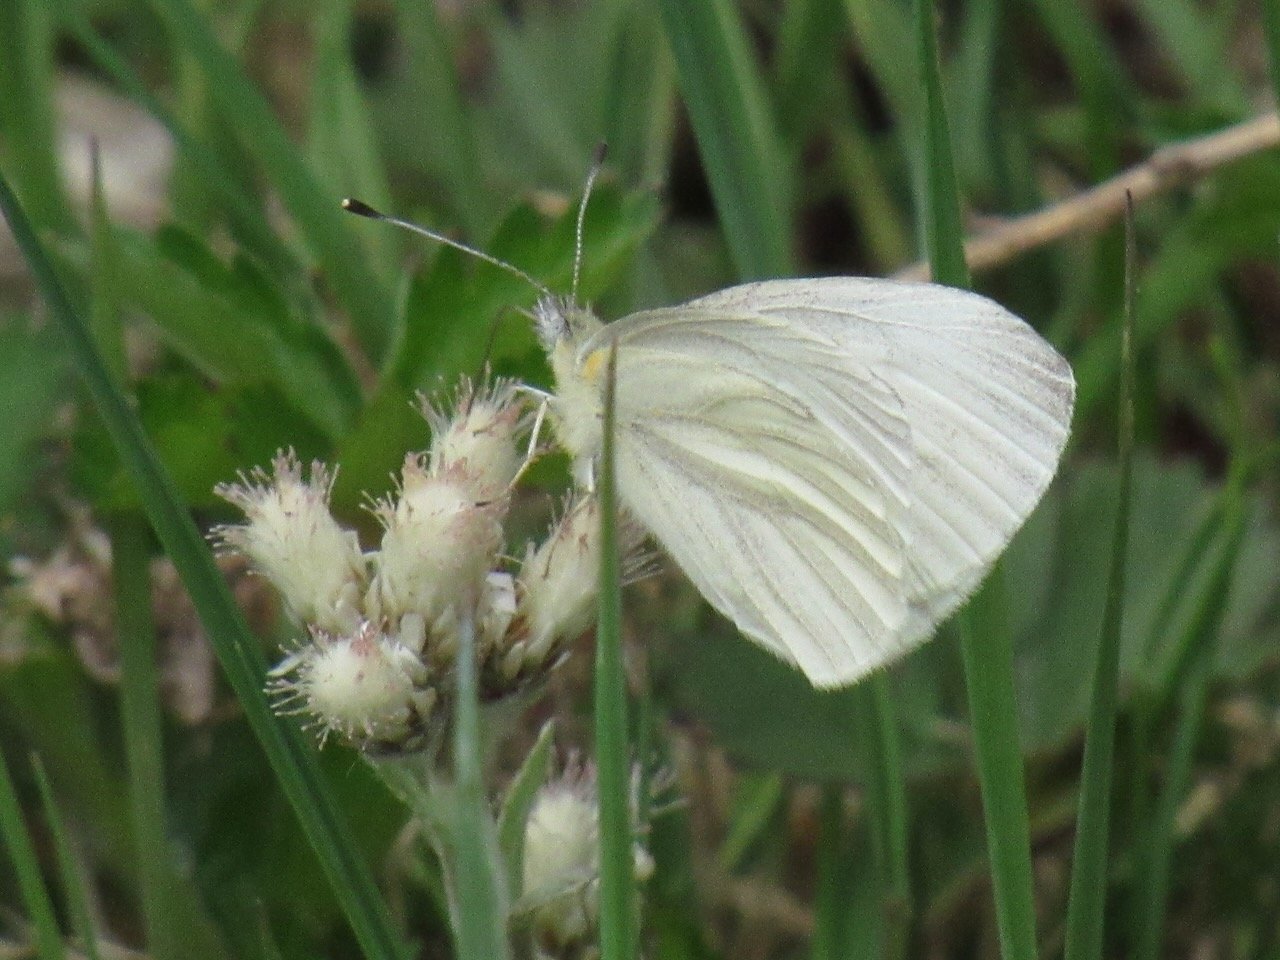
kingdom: Animalia
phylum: Arthropoda
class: Insecta
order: Lepidoptera
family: Pieridae
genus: Pieris
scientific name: Pieris virginiensis
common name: West Virginia White
